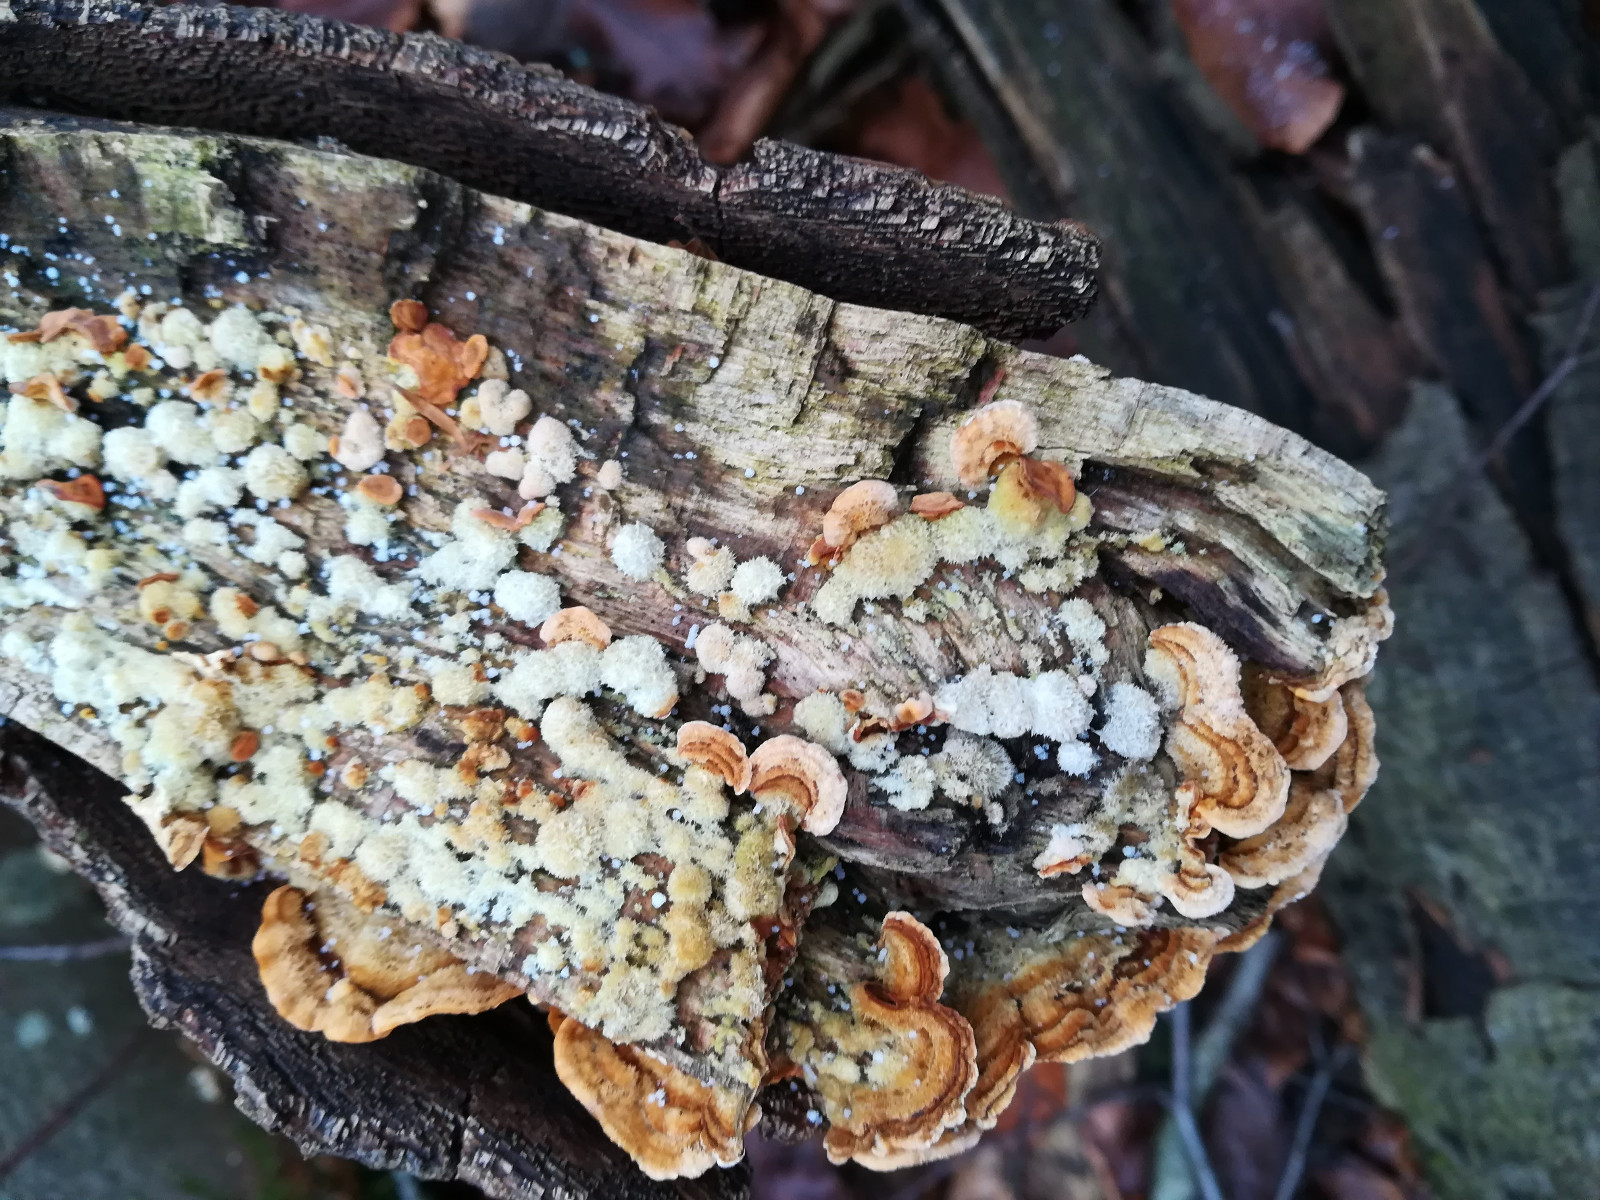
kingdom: Fungi
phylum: Basidiomycota
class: Agaricomycetes
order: Russulales
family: Stereaceae
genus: Stereum
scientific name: Stereum hirsutum
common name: håret lædersvamp
